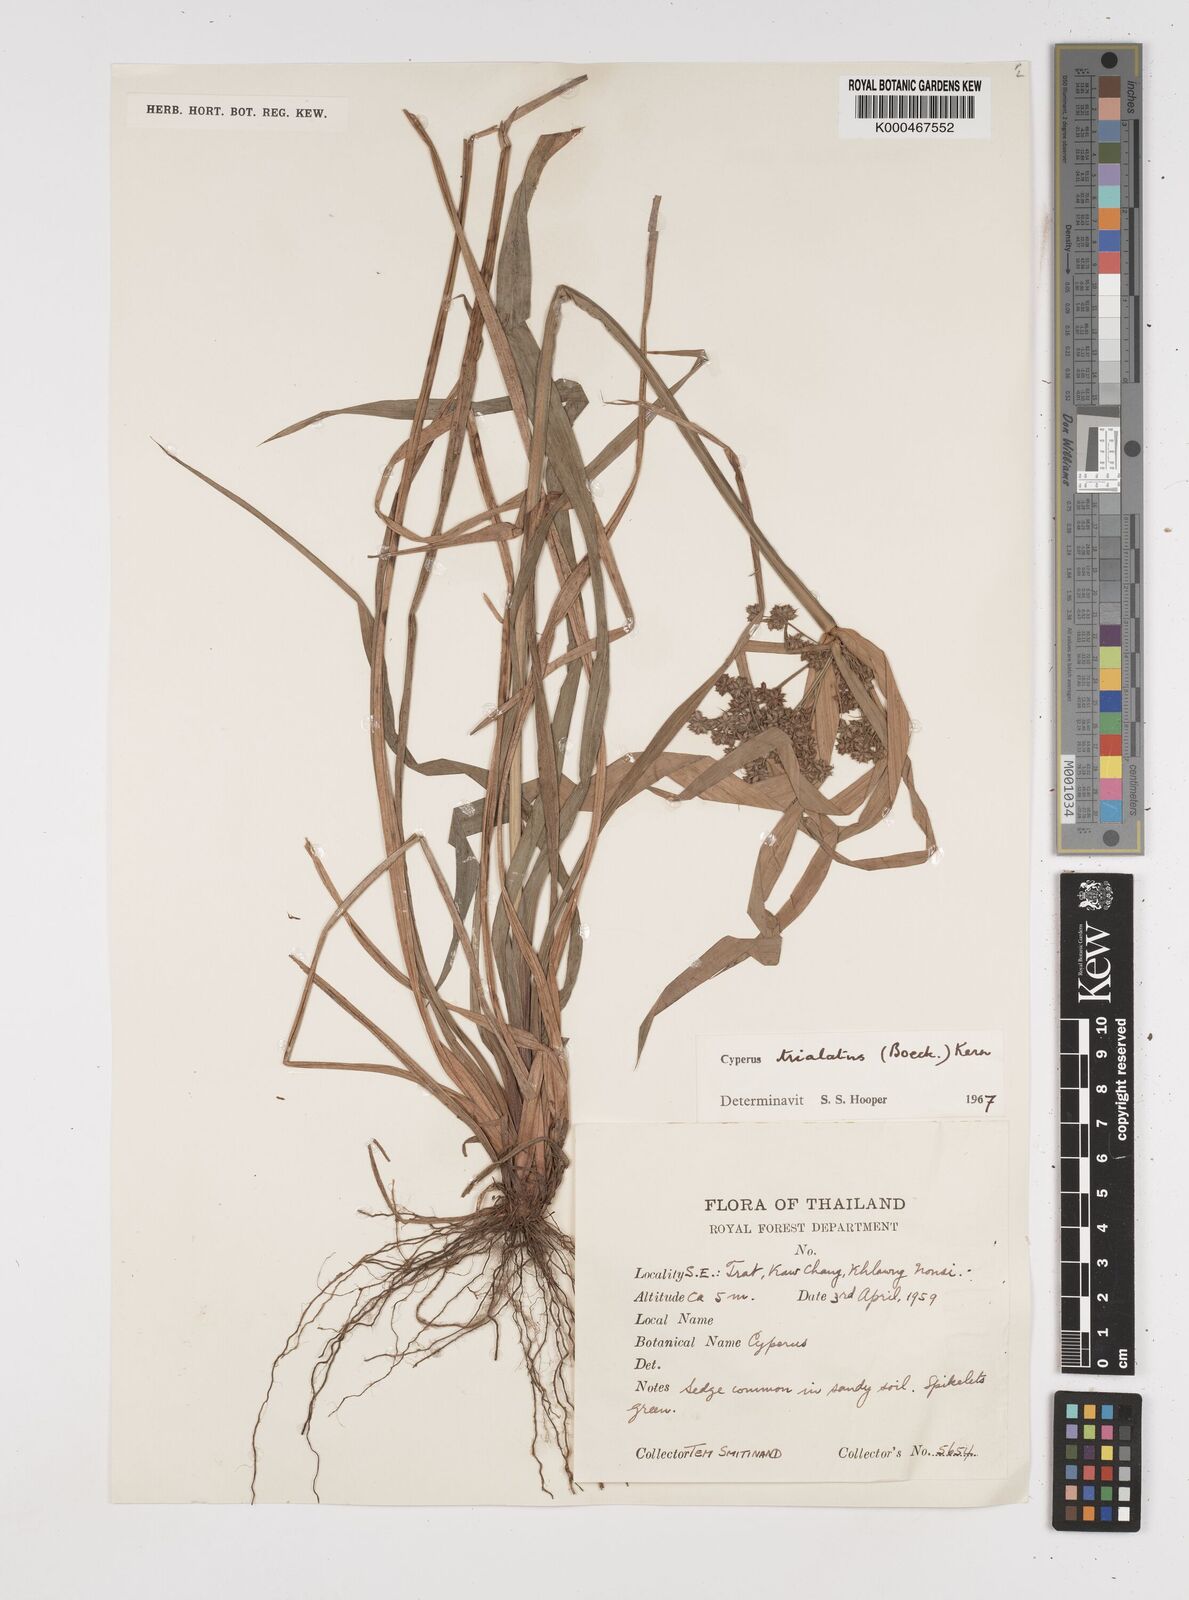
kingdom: Plantae
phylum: Tracheophyta
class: Liliopsida
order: Poales
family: Cyperaceae
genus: Cyperus
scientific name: Cyperus trialatus
